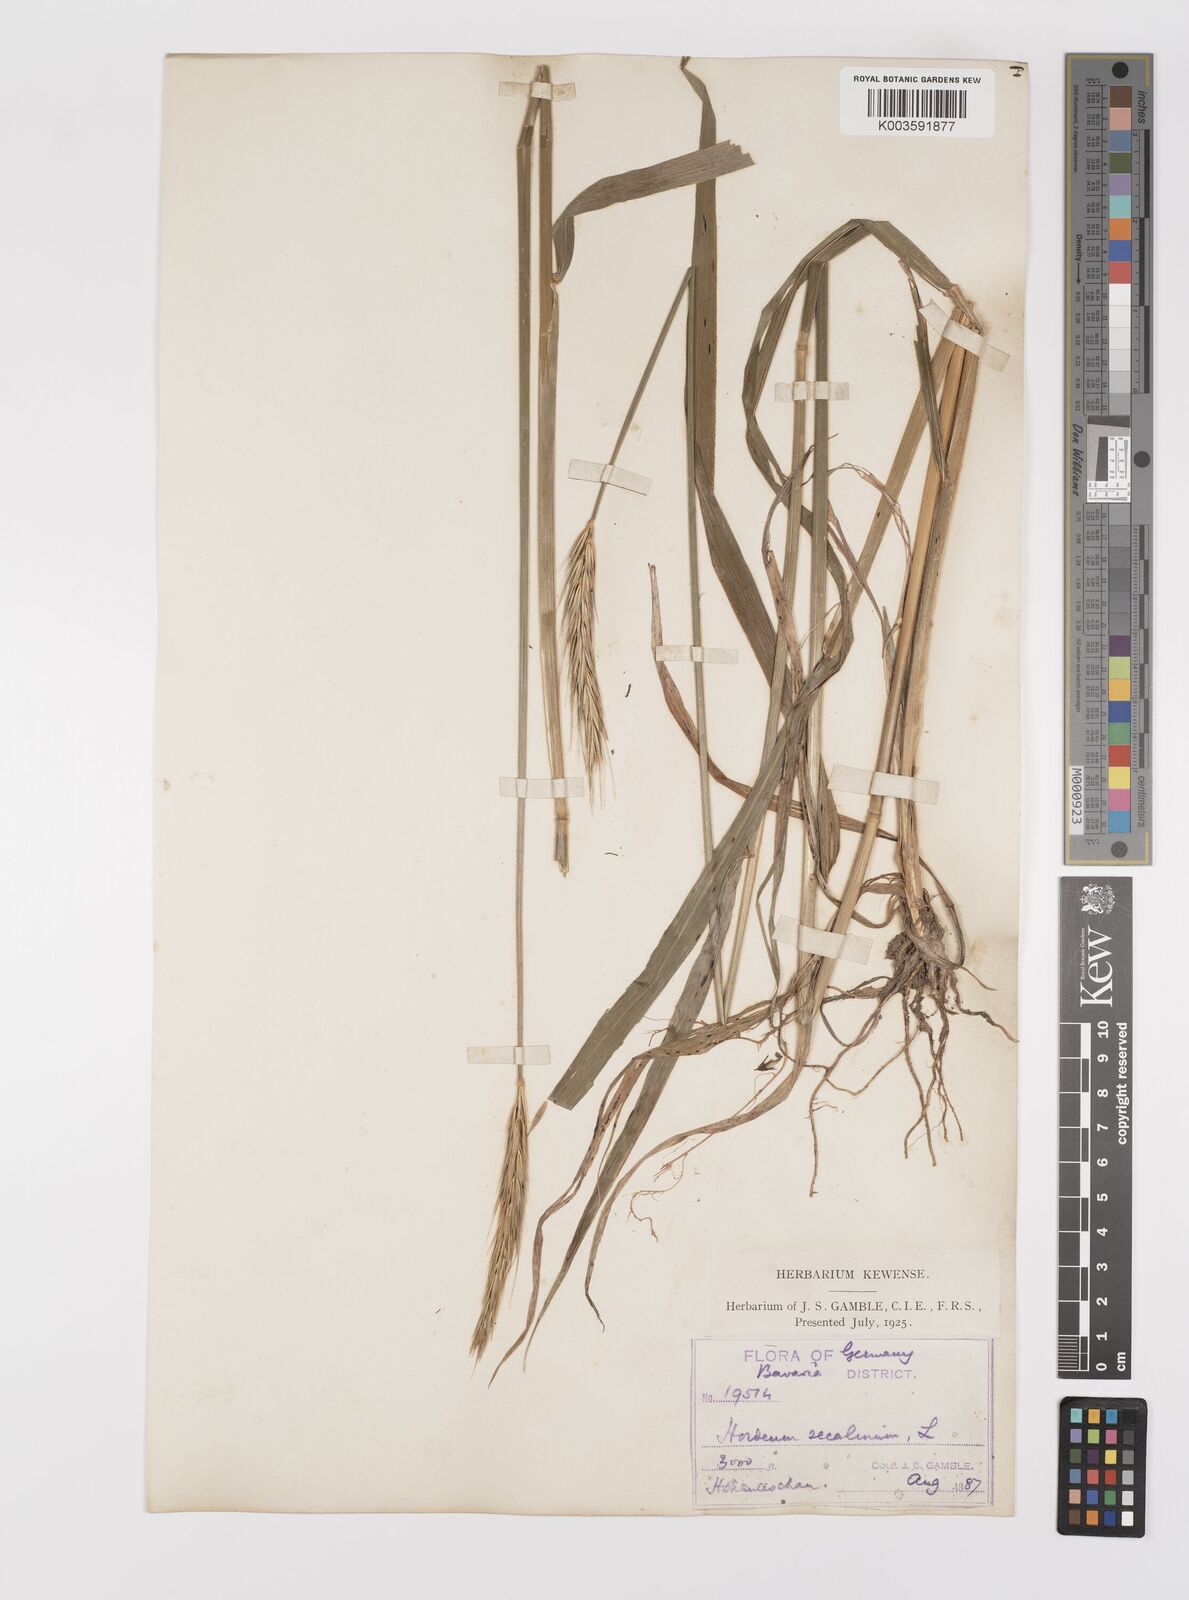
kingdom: Plantae
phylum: Tracheophyta
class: Liliopsida
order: Poales
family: Poaceae
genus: Hordelymus
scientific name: Hordelymus europaeus
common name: Wood-barley
